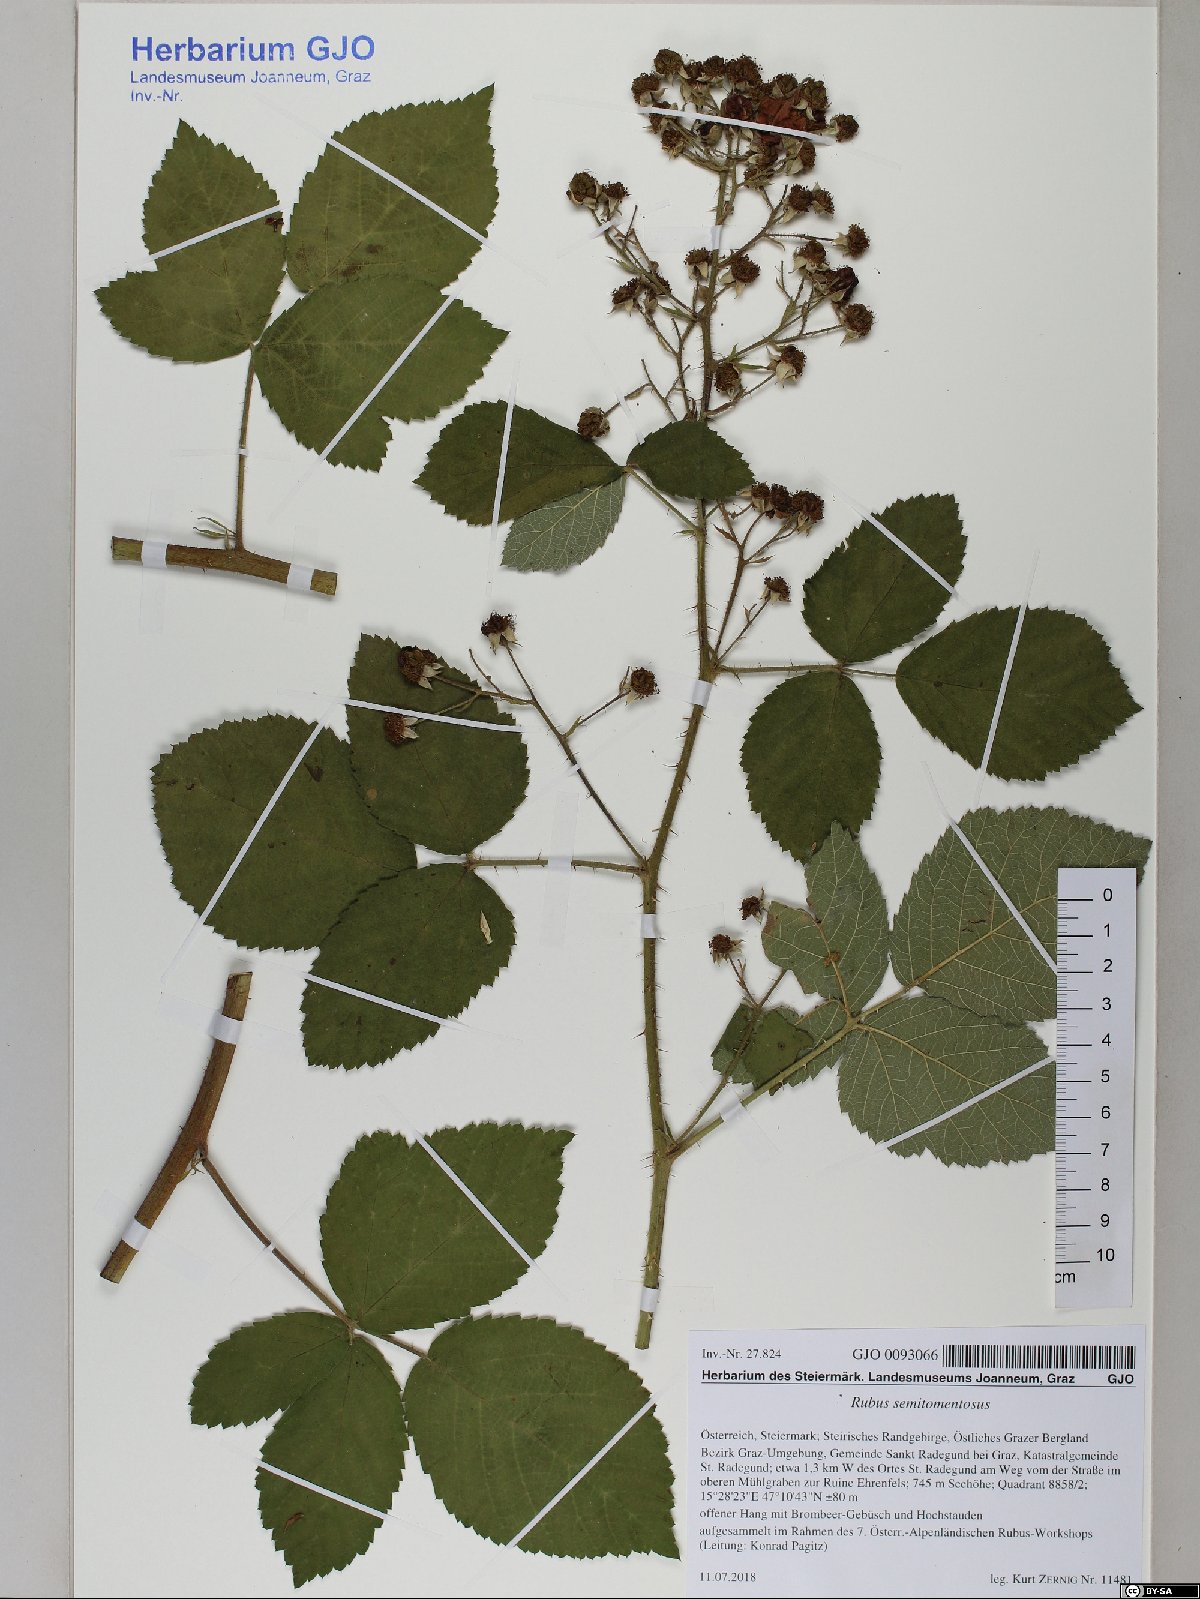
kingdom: Plantae
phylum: Tracheophyta
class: Magnoliopsida
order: Rosales
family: Rosaceae
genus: Rubus
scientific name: Rubus semitomentosus
